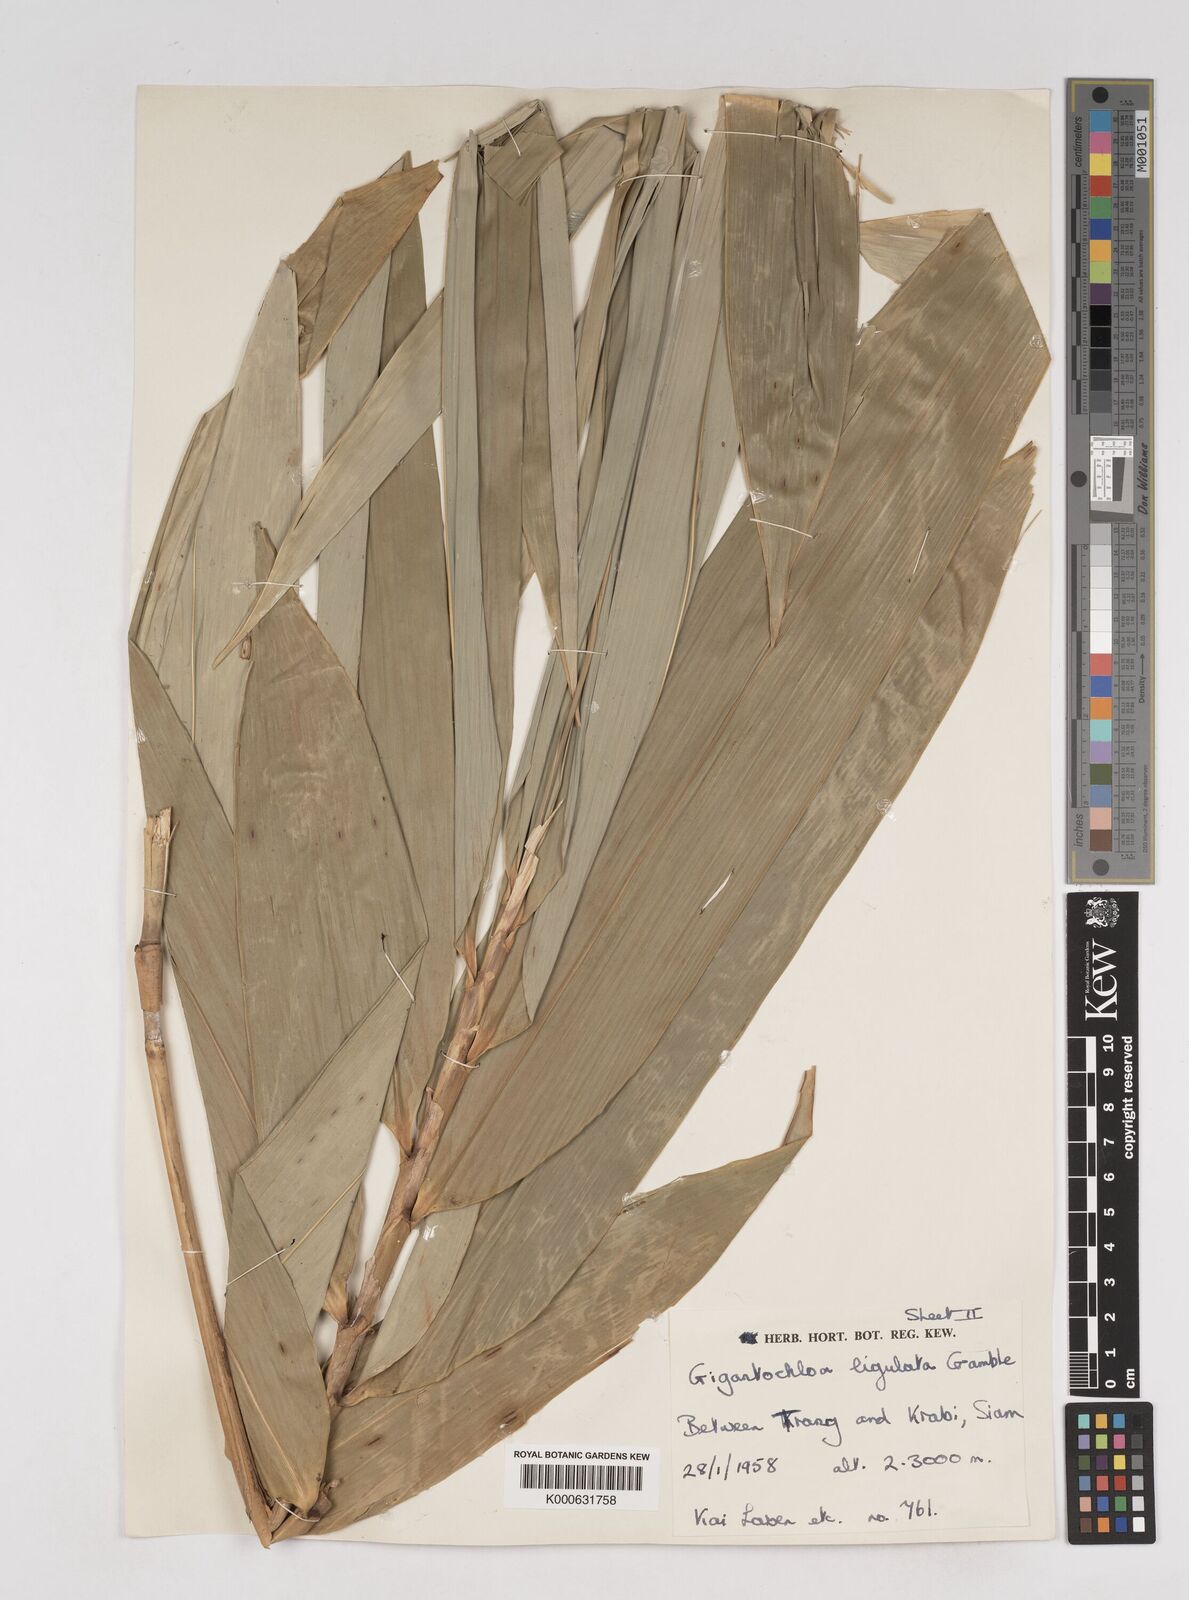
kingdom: Plantae
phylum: Tracheophyta
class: Liliopsida
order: Poales
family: Poaceae
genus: Gigantochloa
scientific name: Gigantochloa ligulata
